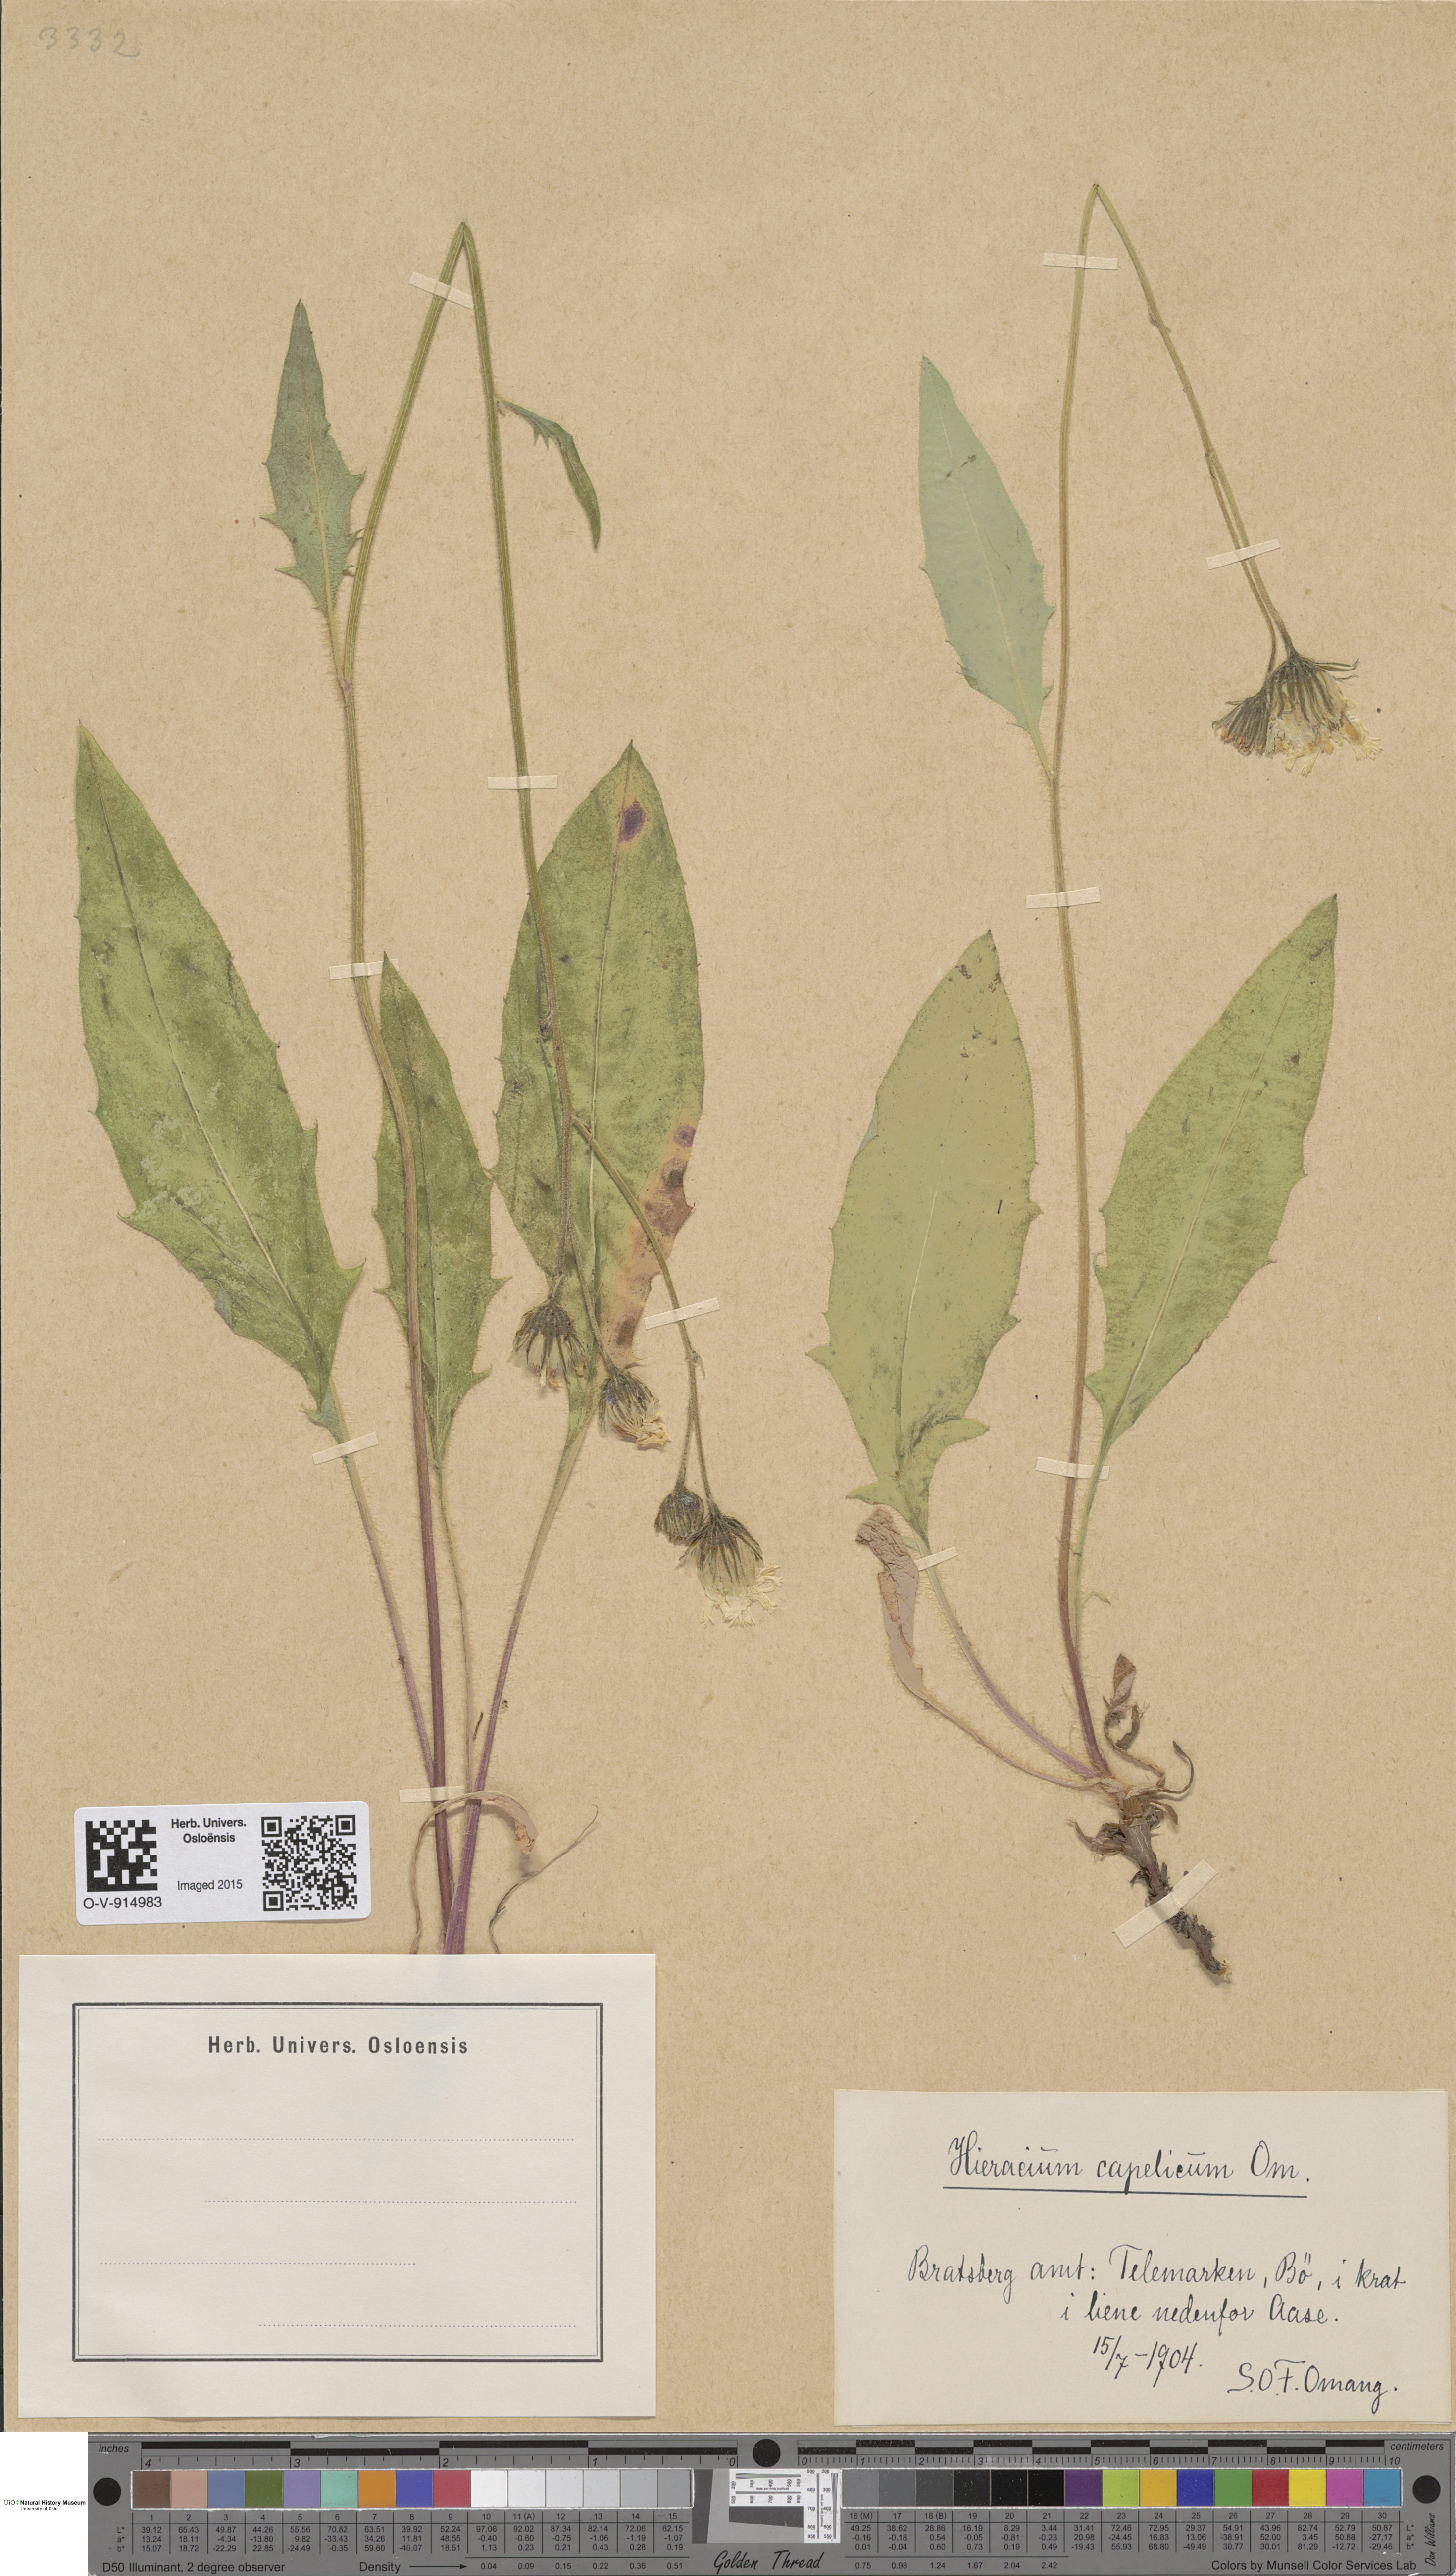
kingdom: Plantae
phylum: Tracheophyta
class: Magnoliopsida
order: Asterales
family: Asteraceae
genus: Hieracium
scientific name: Hieracium
